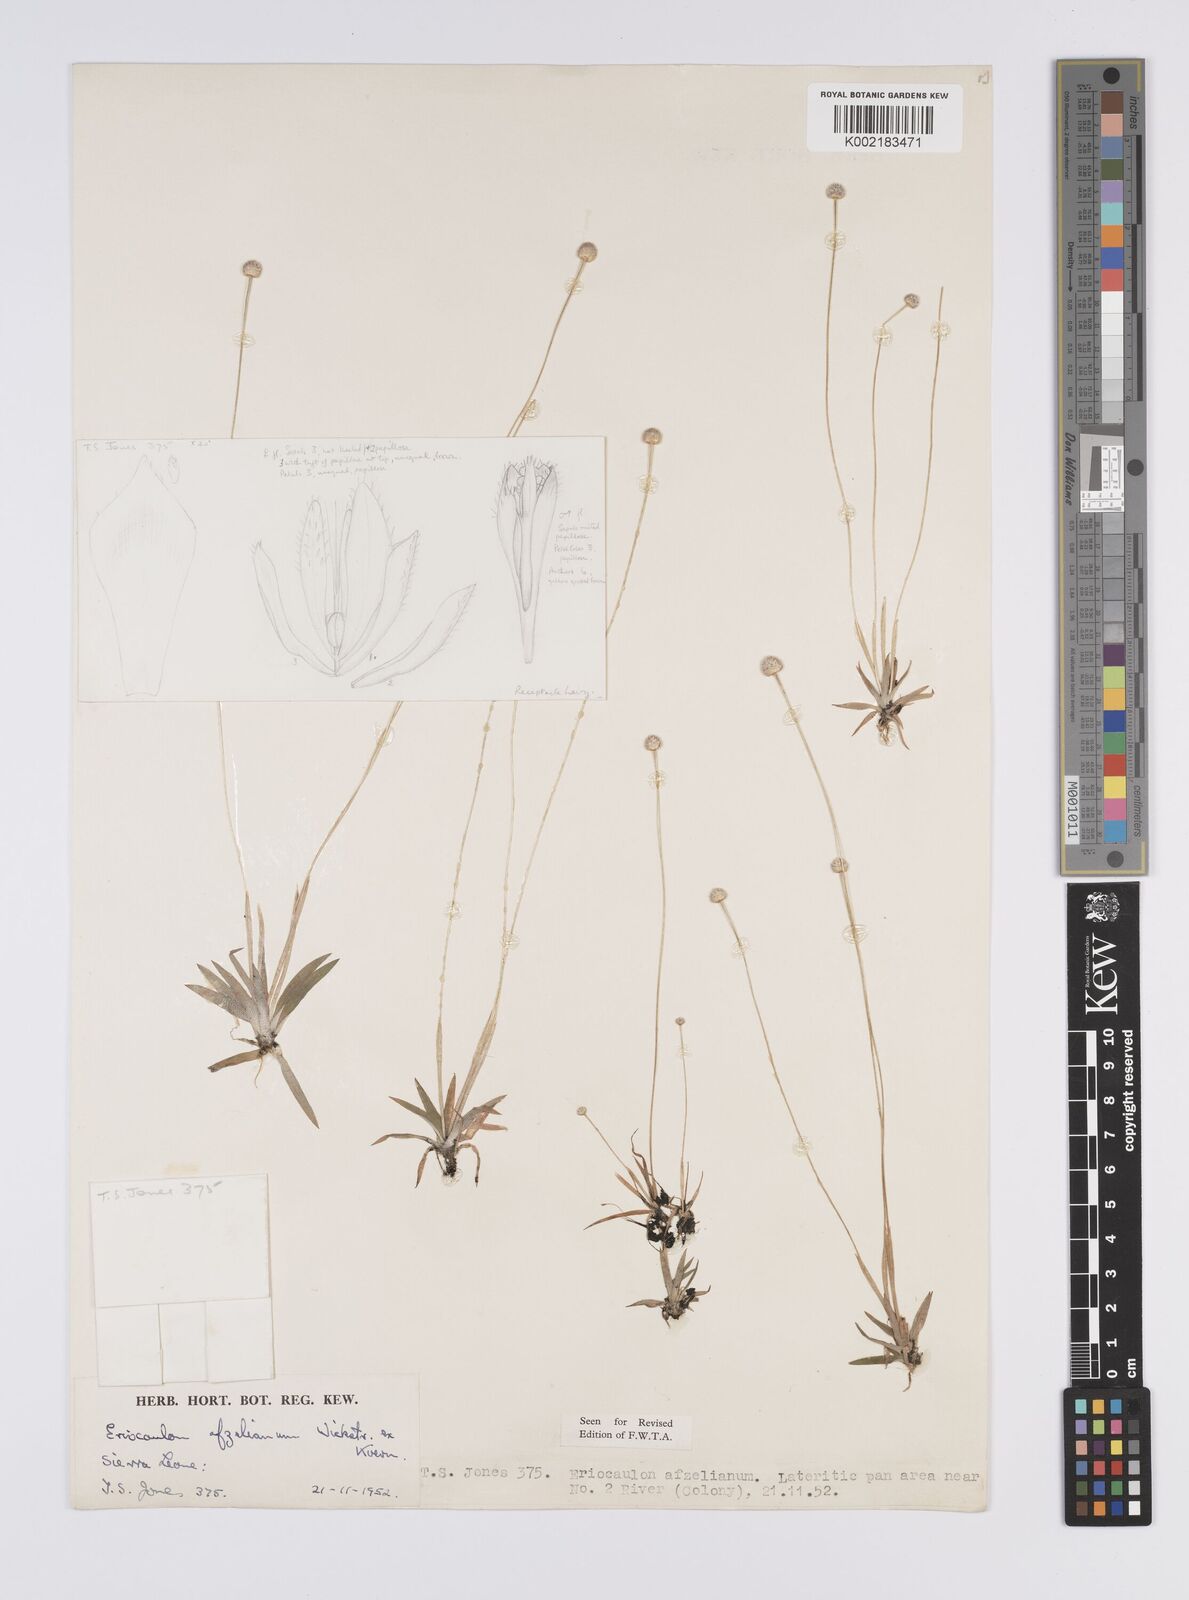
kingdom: Plantae
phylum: Tracheophyta
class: Liliopsida
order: Poales
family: Eriocaulaceae
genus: Eriocaulon
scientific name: Eriocaulon afzelianum
